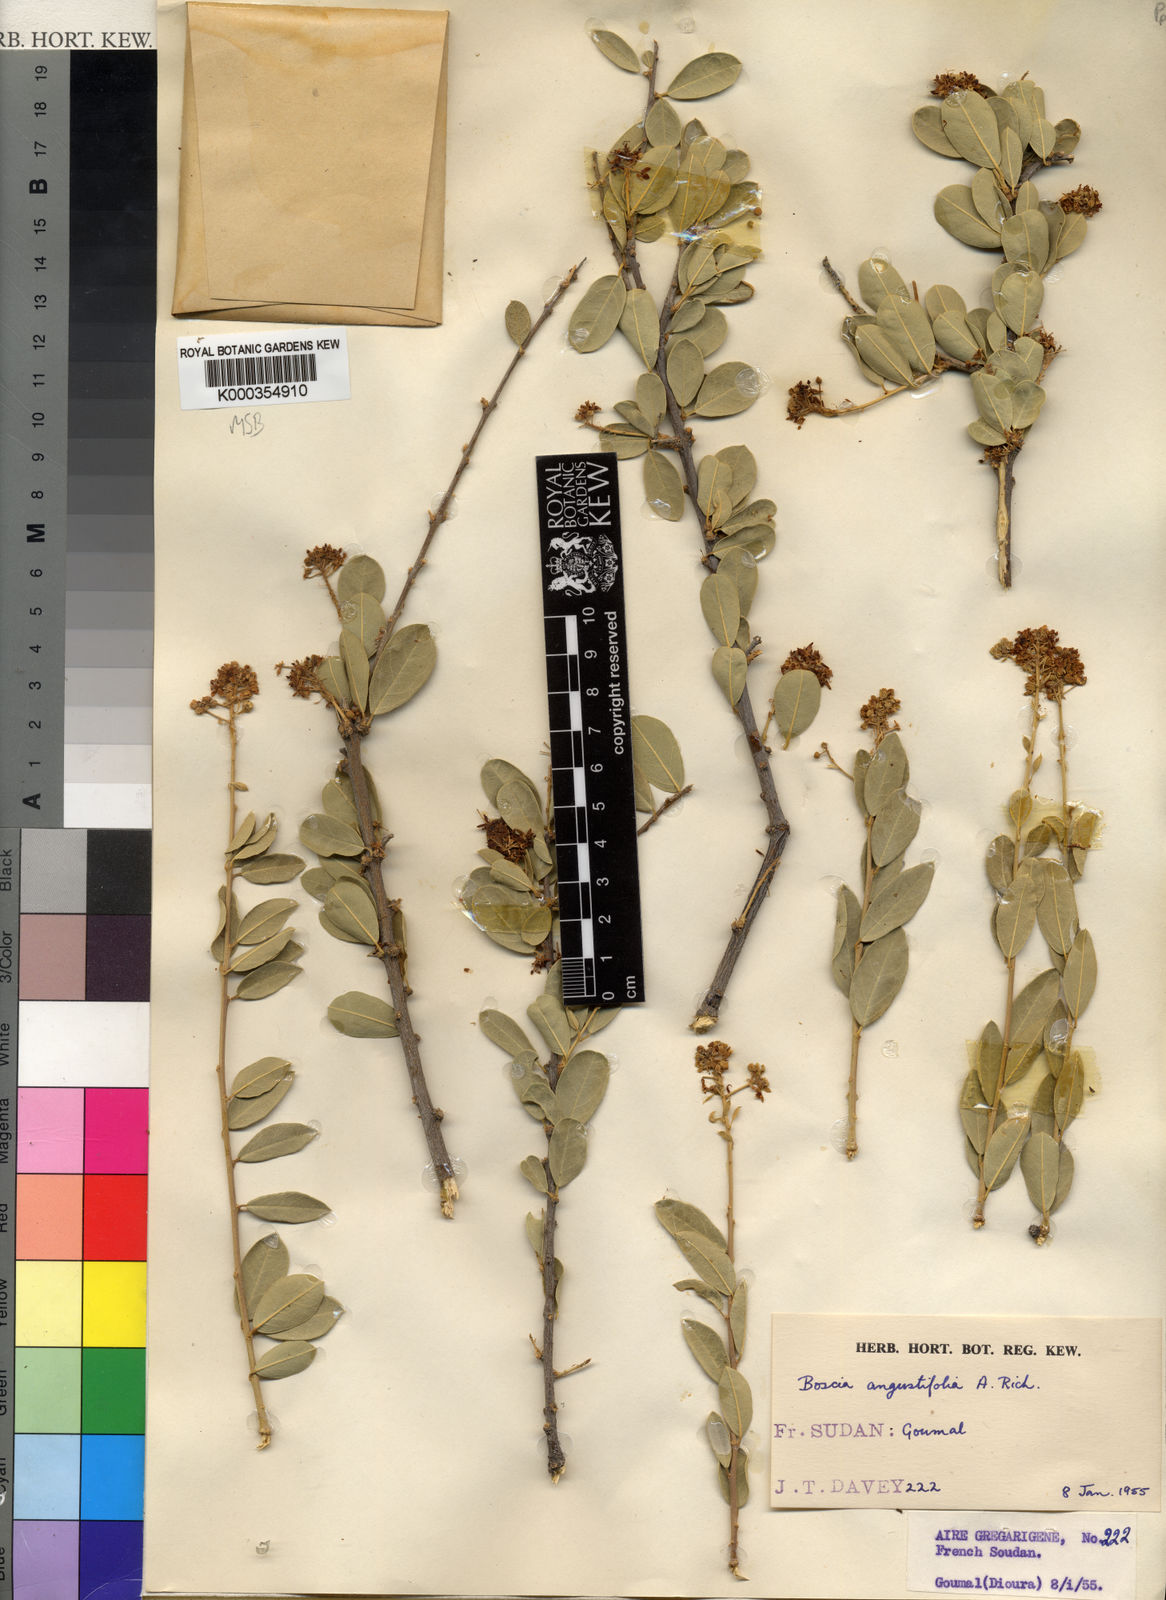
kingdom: Plantae
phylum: Tracheophyta
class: Magnoliopsida
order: Brassicales
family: Capparaceae
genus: Boscia
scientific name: Boscia angustifolia
